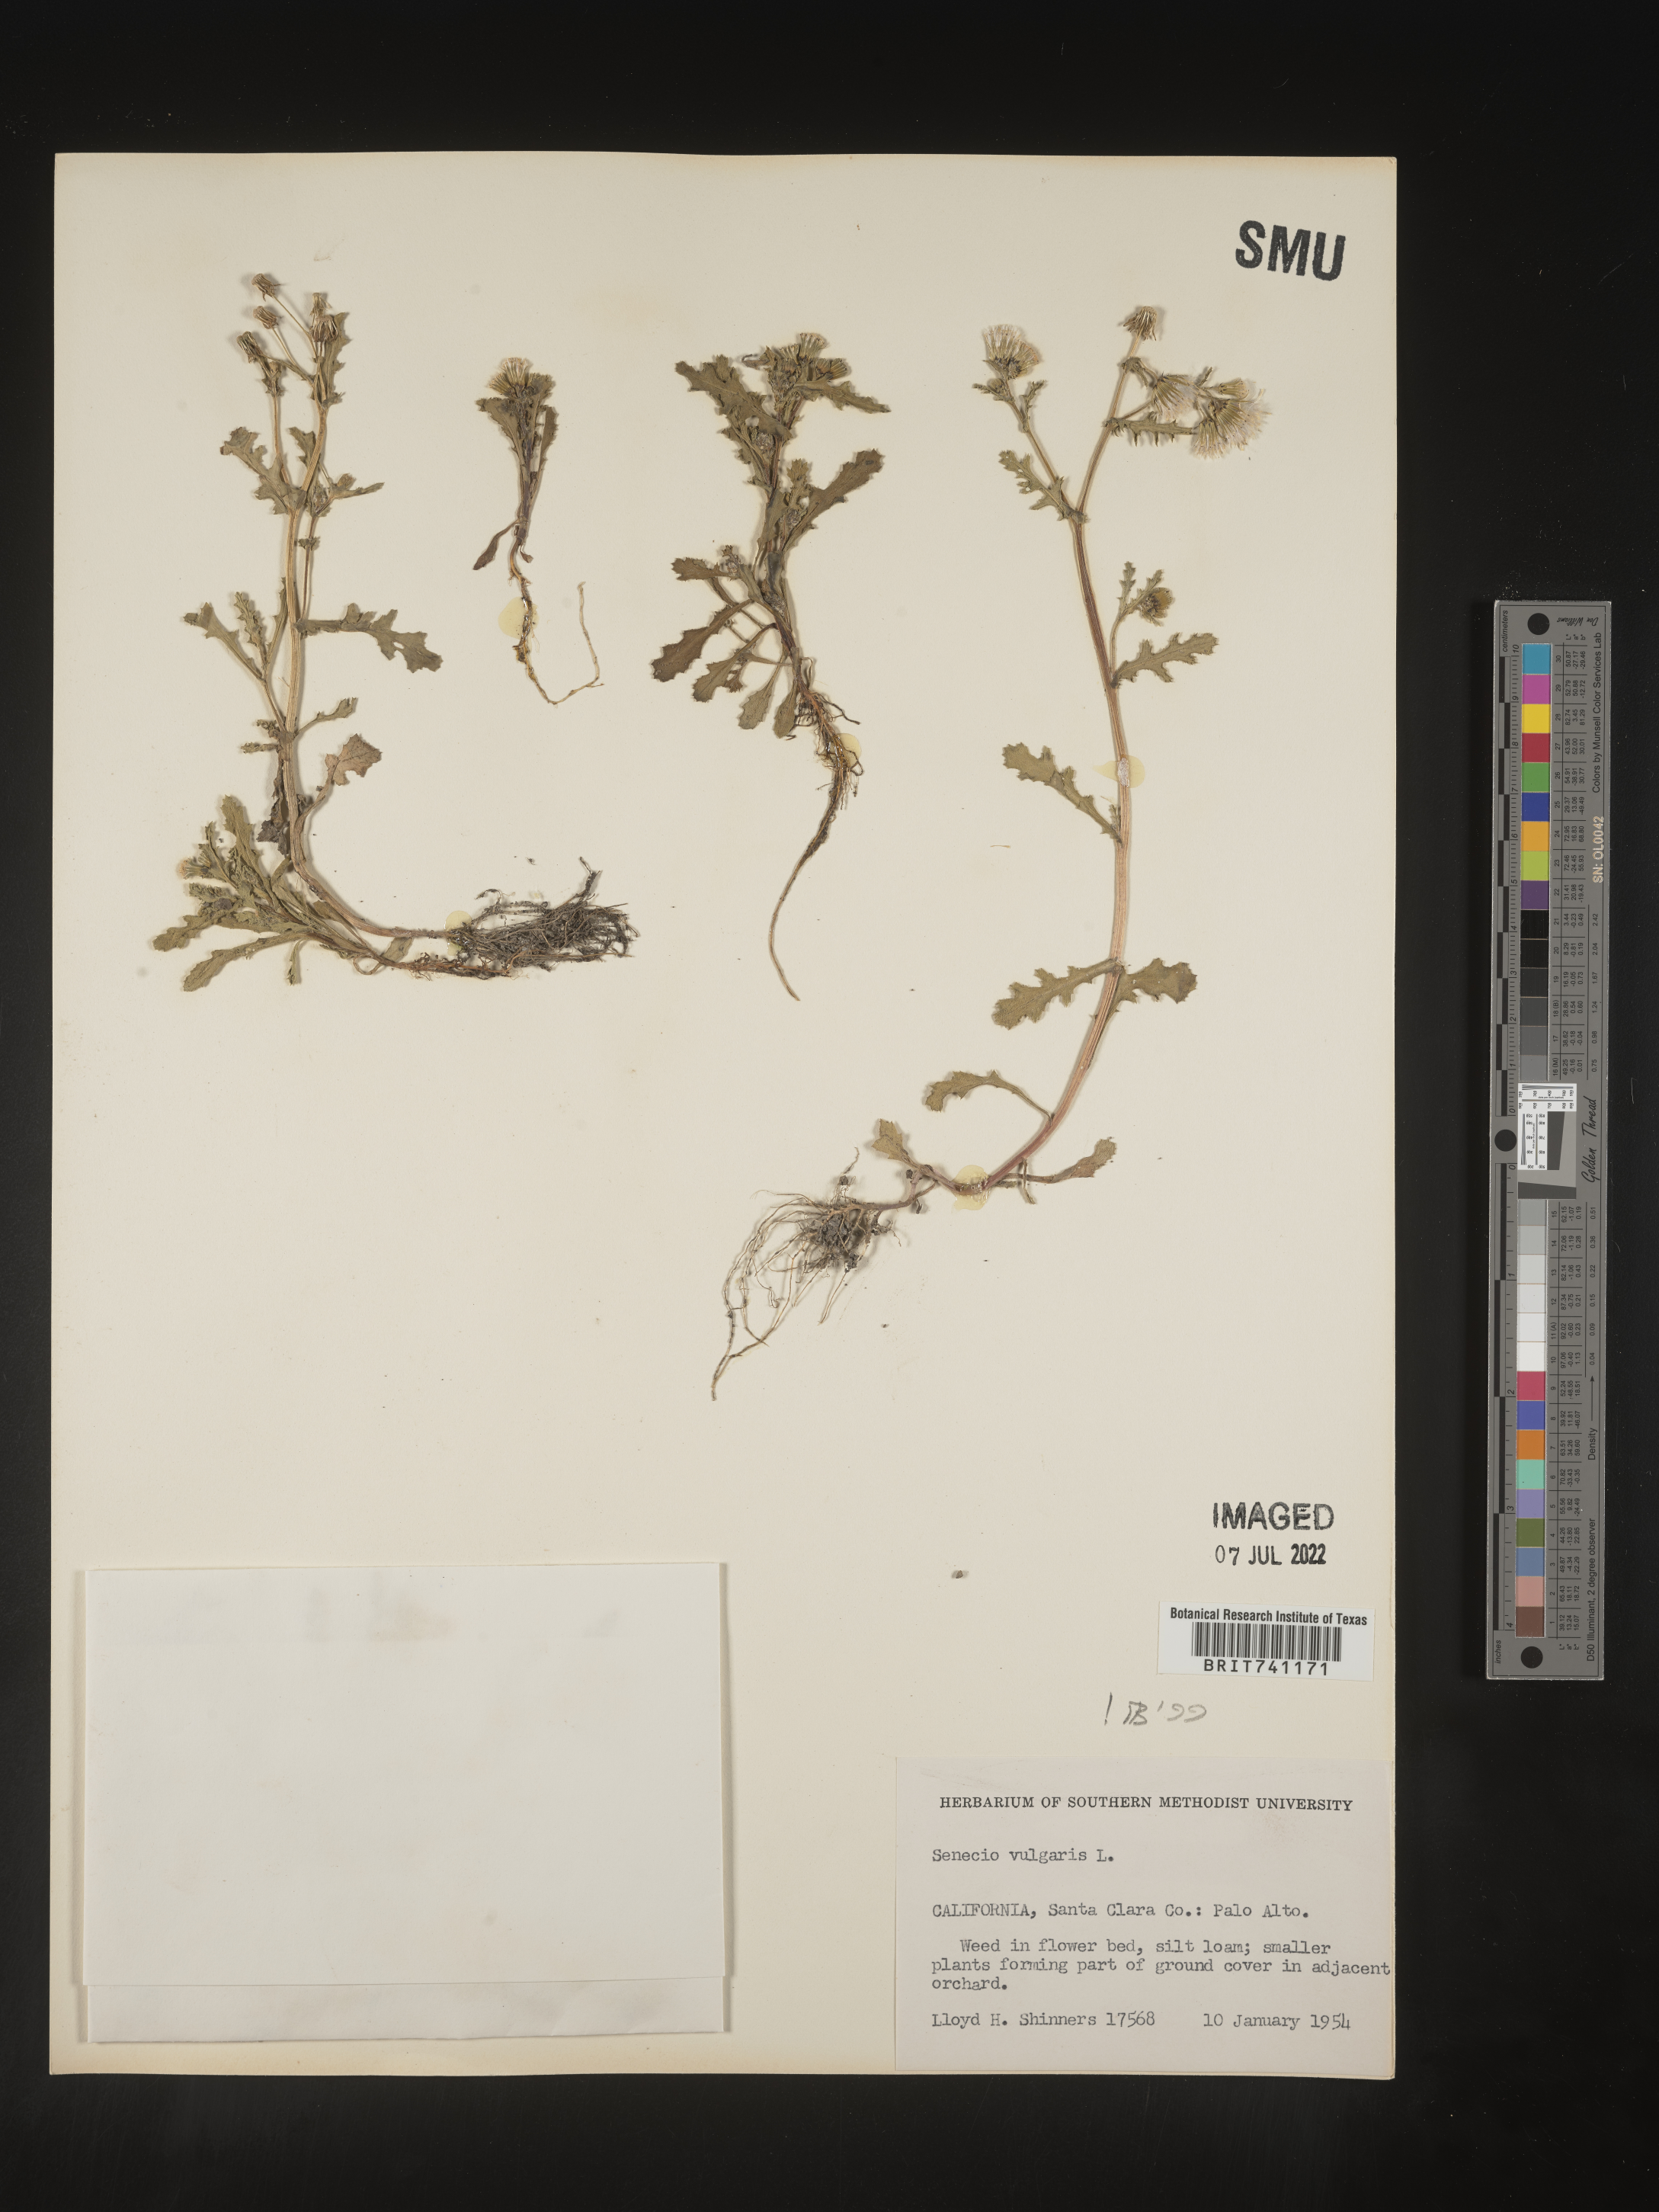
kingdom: Plantae
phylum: Tracheophyta
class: Magnoliopsida
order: Asterales
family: Asteraceae
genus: Senecio
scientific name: Senecio vulgaris
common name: Old-man-in-the-spring
